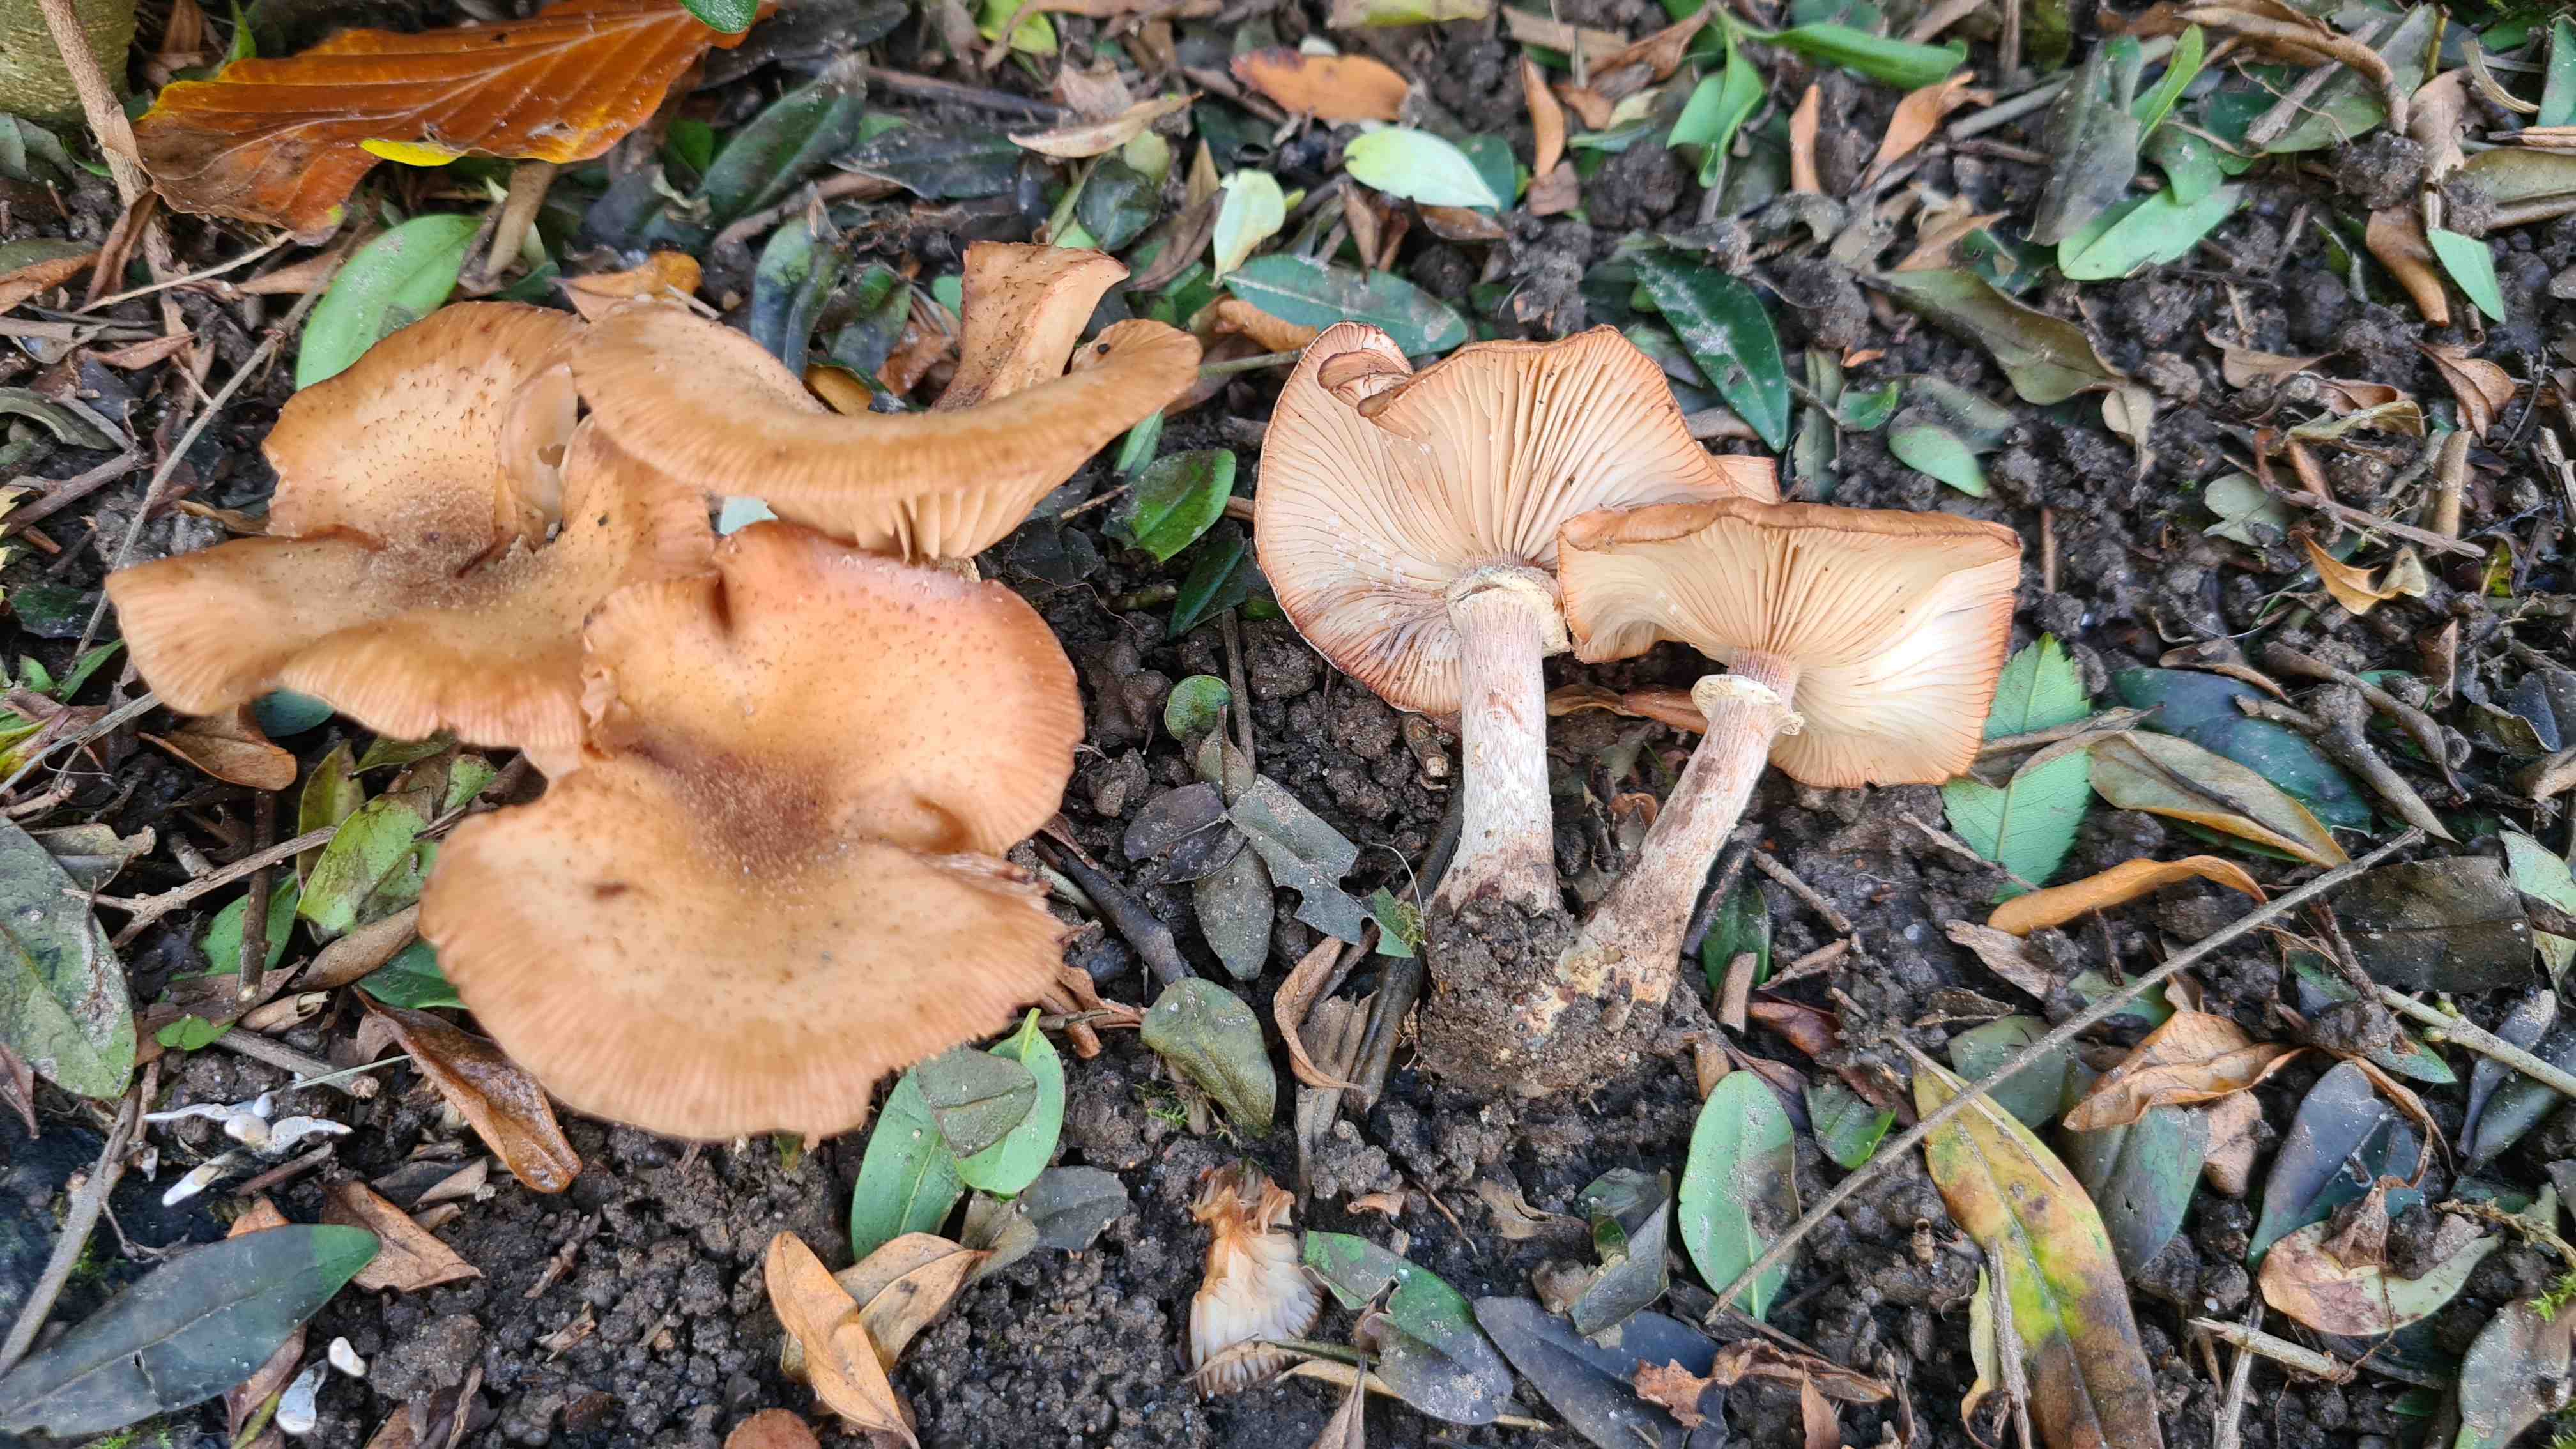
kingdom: Fungi
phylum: Basidiomycota
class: Agaricomycetes
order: Agaricales
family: Physalacriaceae
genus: Armillaria
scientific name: Armillaria lutea
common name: køllestokket honningsvamp
